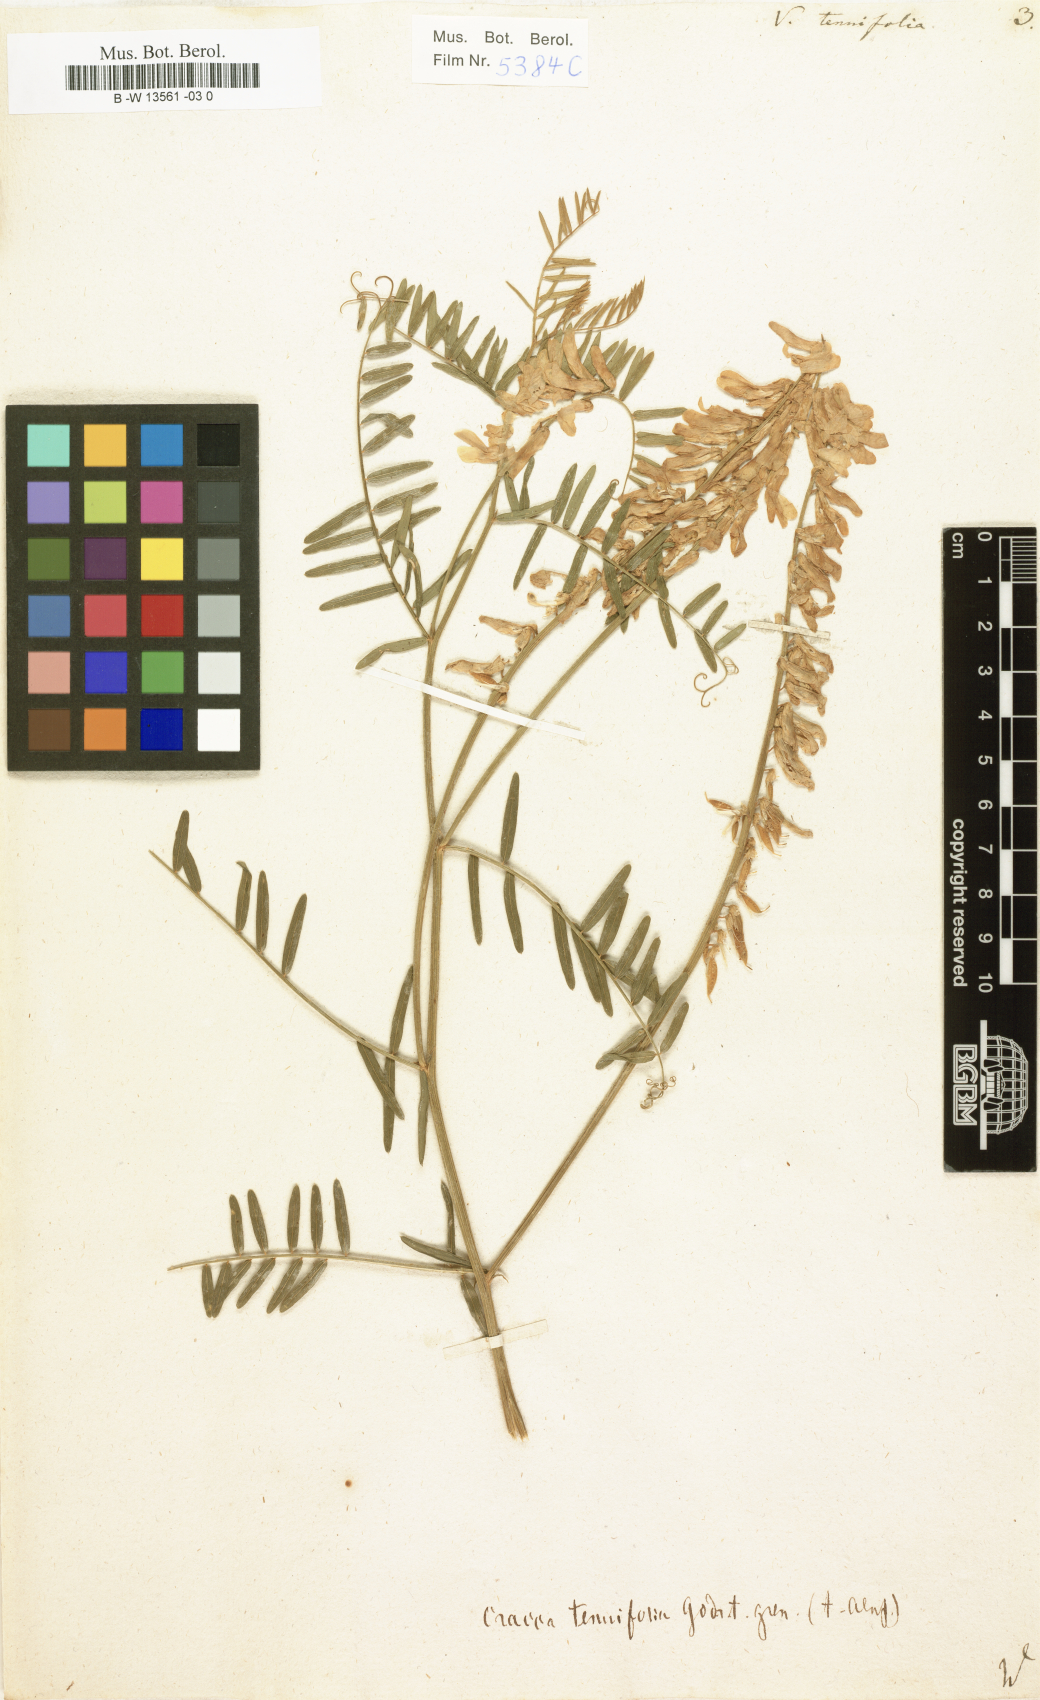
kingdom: Plantae
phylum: Tracheophyta
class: Magnoliopsida
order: Fabales
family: Fabaceae
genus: Vicia
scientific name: Vicia tenuifolia
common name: Fine-leaved vetch
